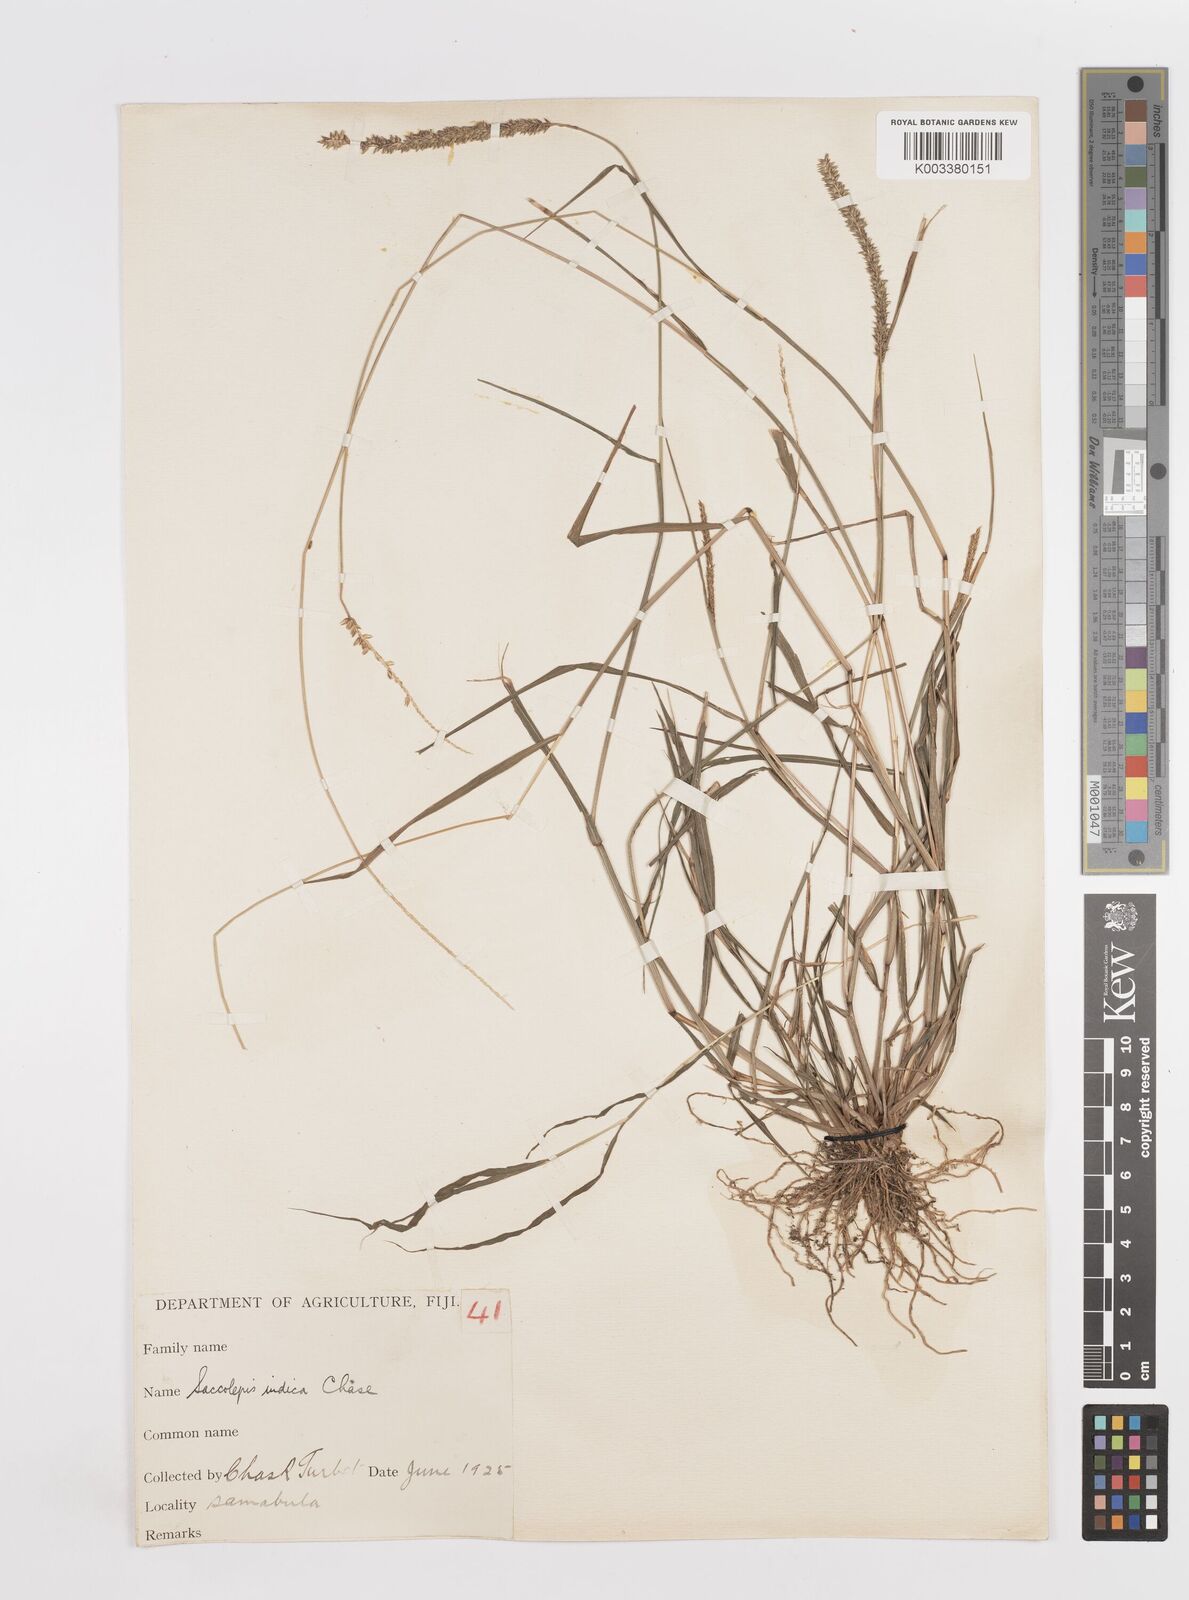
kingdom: Plantae
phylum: Tracheophyta
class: Liliopsida
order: Poales
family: Poaceae
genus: Sacciolepis
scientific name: Sacciolepis indica
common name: Glenwoodgrass
